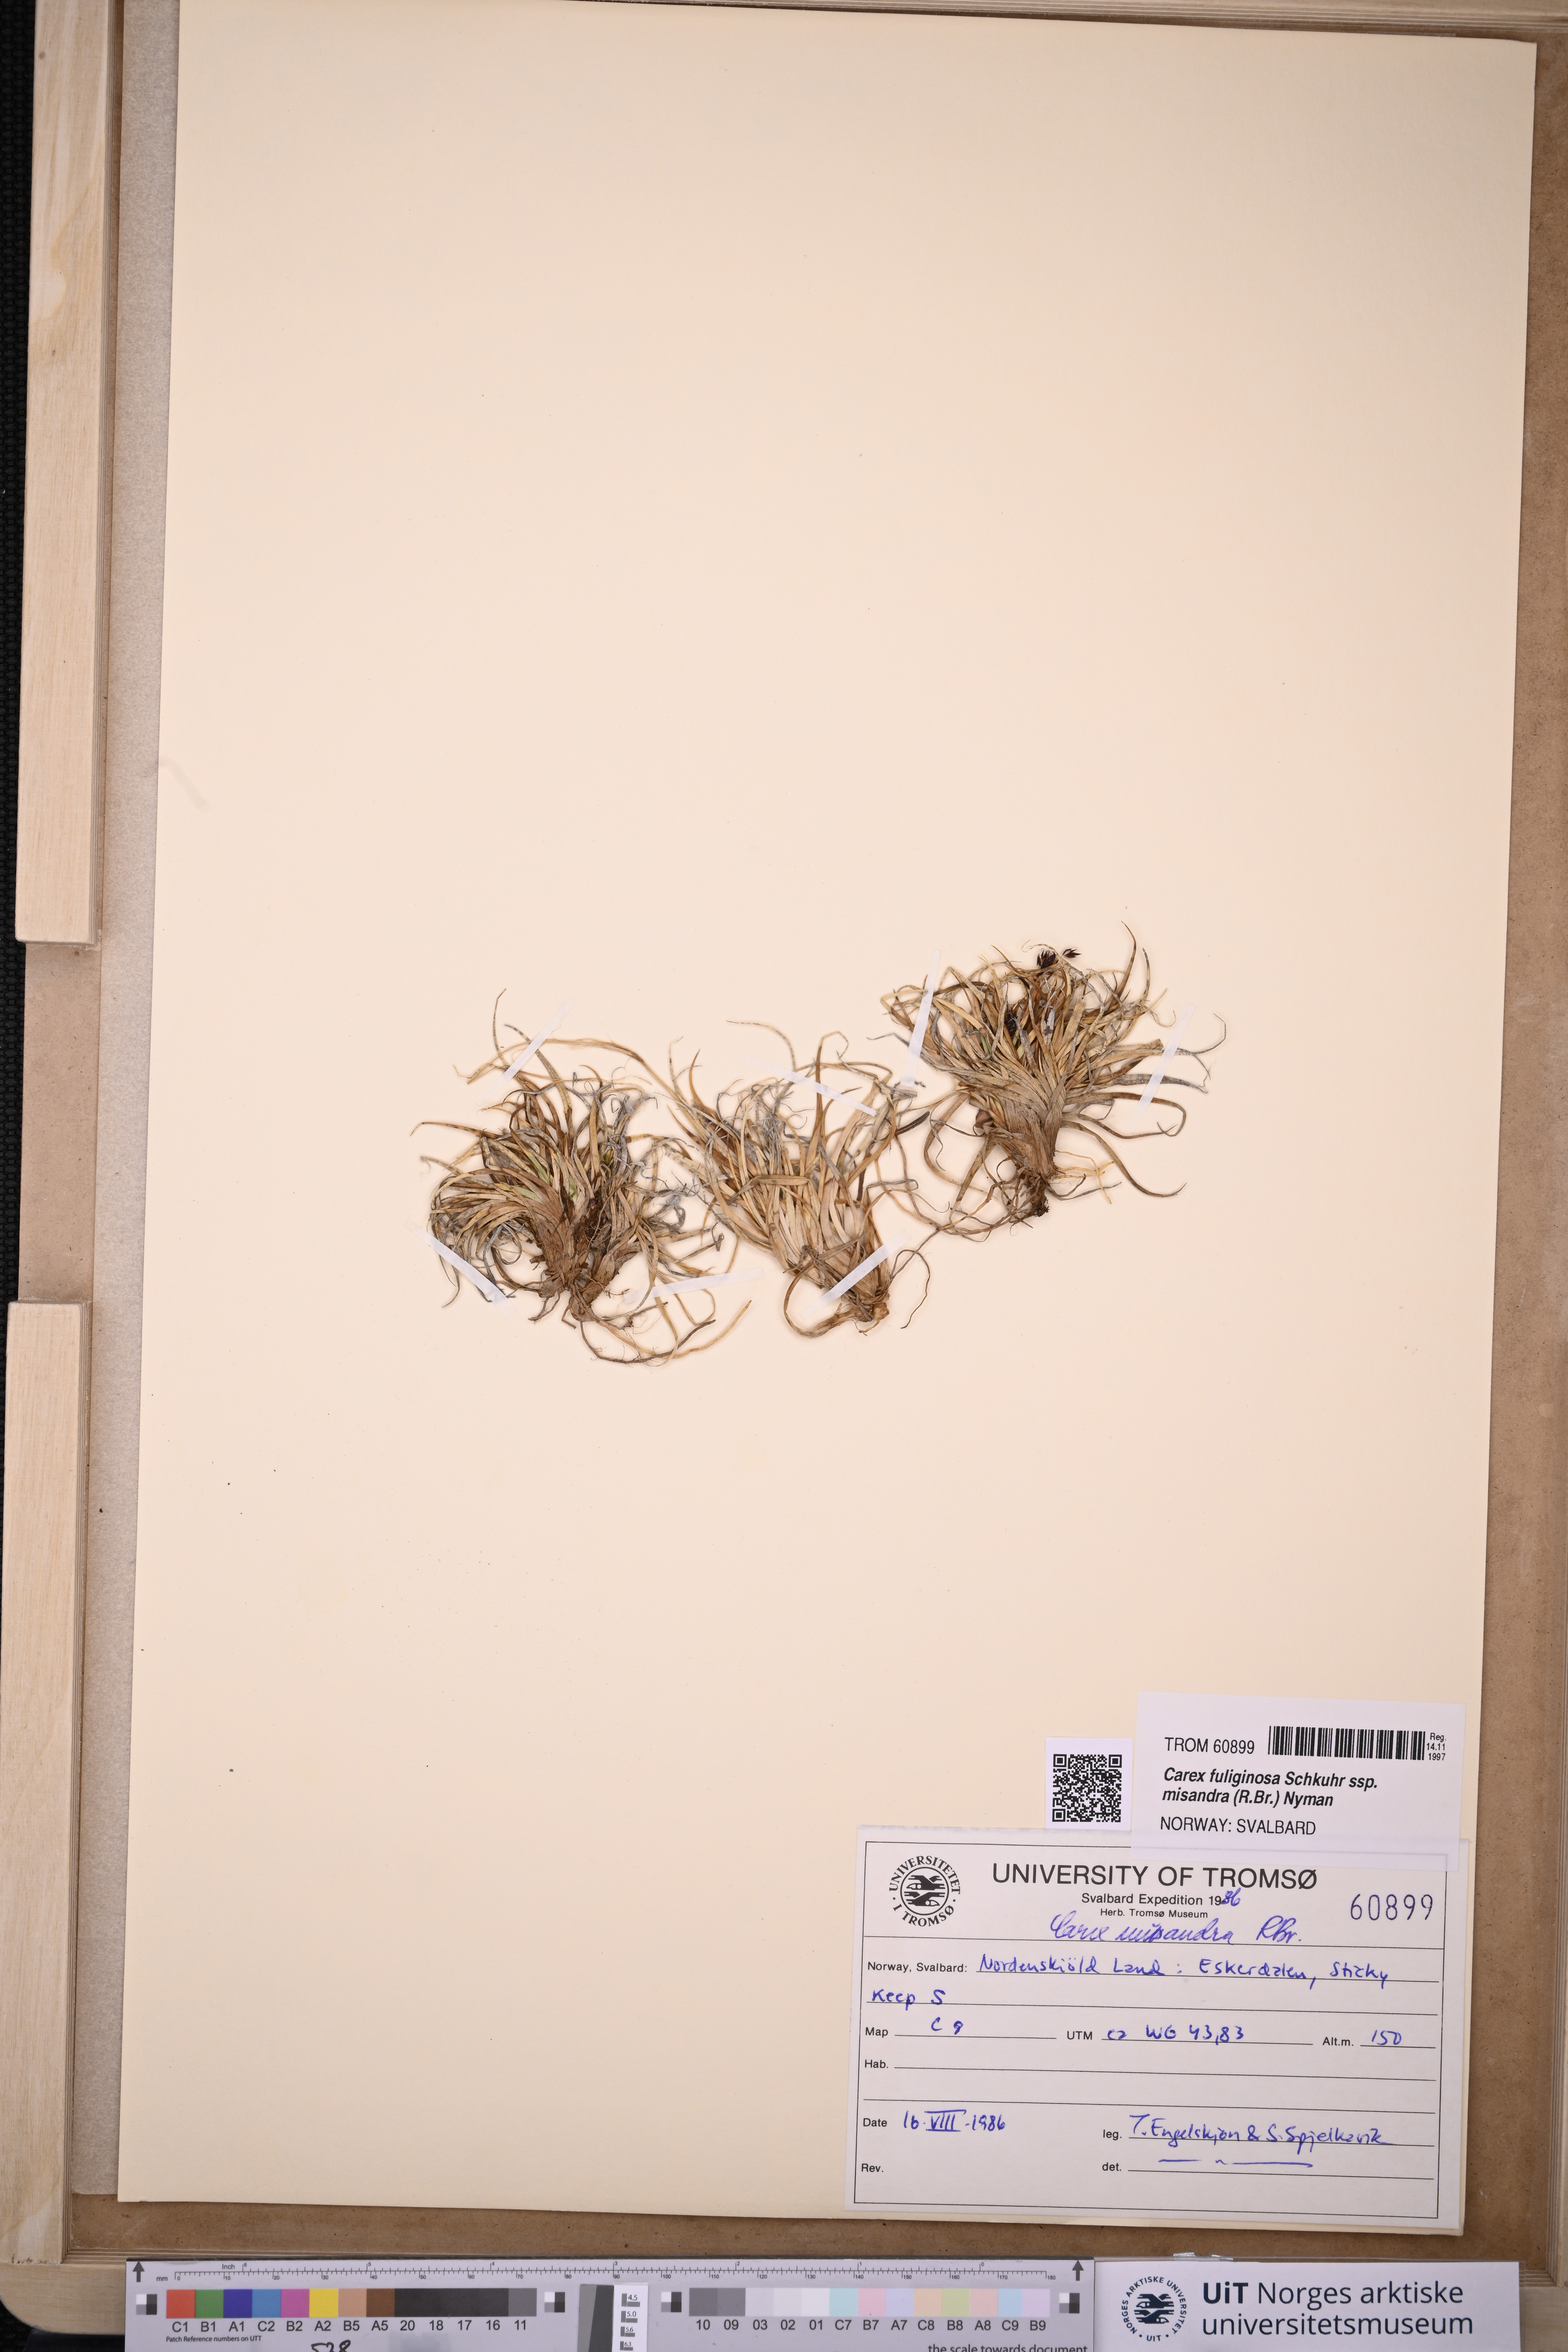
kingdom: Plantae
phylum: Tracheophyta
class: Liliopsida
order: Poales
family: Cyperaceae
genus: Carex
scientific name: Carex fuliginosa
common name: Few-flowered sedge
